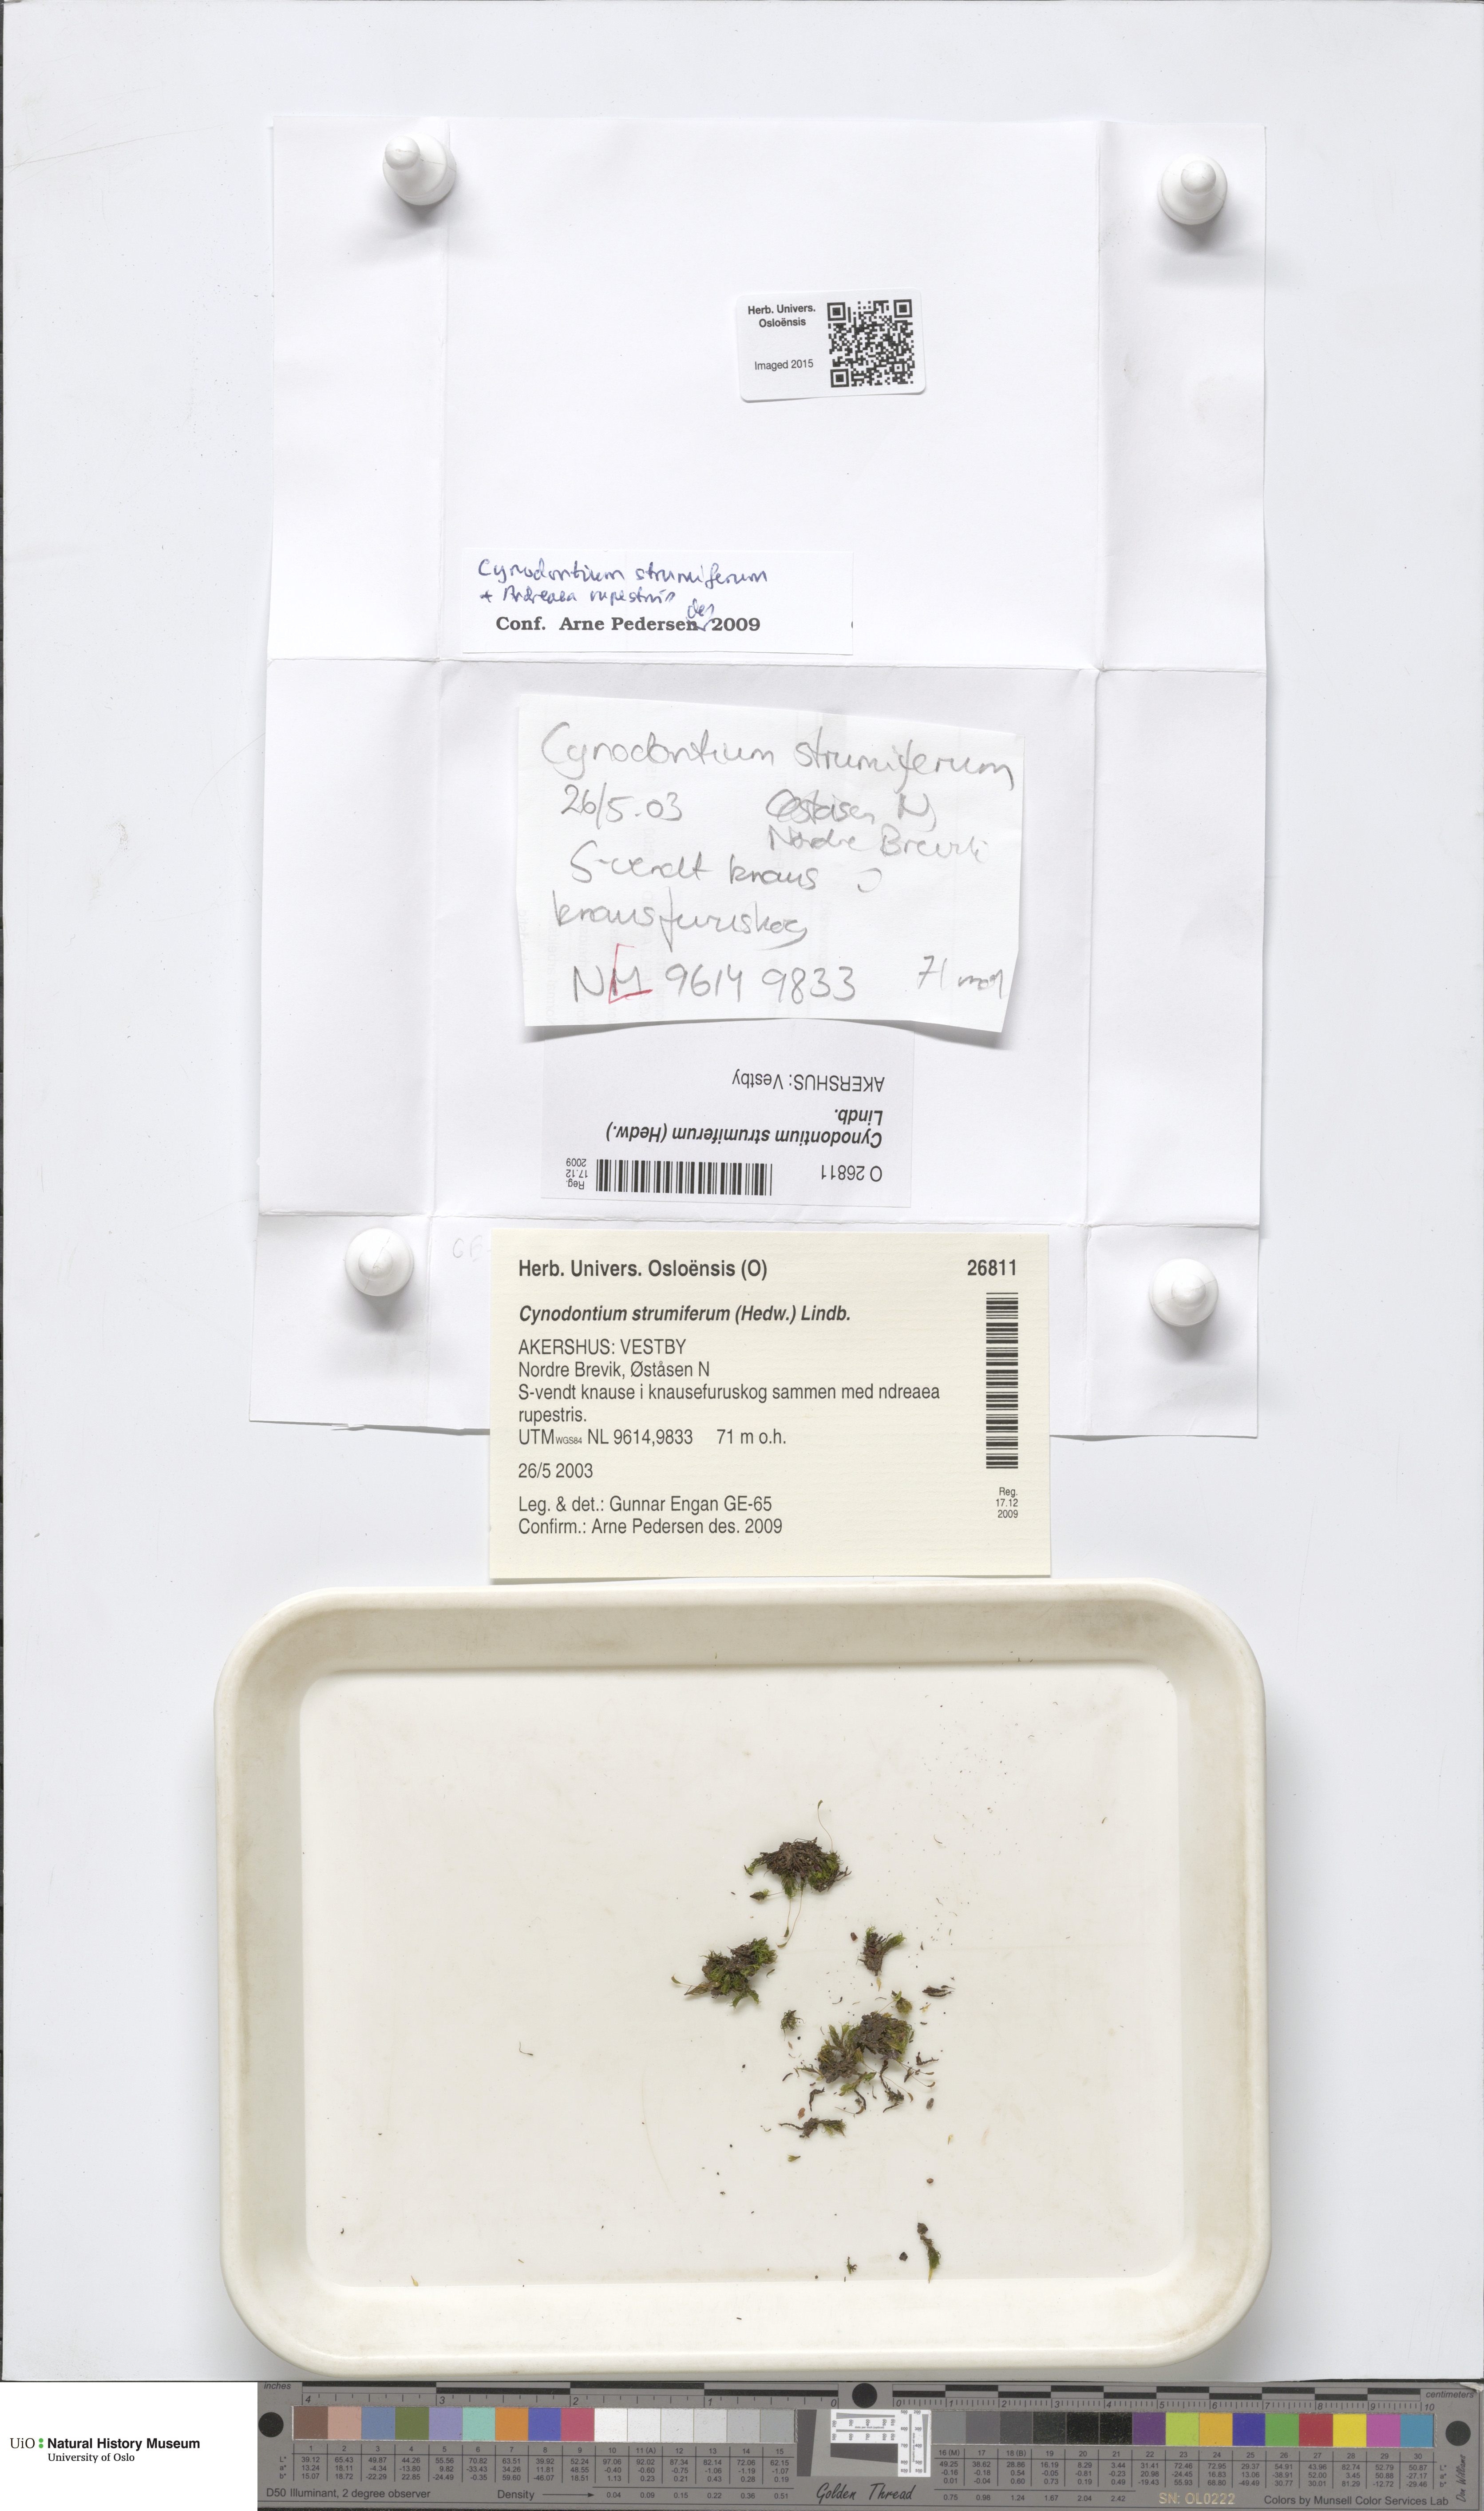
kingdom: Plantae
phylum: Bryophyta
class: Bryopsida
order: Dicranales
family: Rhabdoweisiaceae
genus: Cynodontium
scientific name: Cynodontium strumiferum
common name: Swollen dogtooth moss
